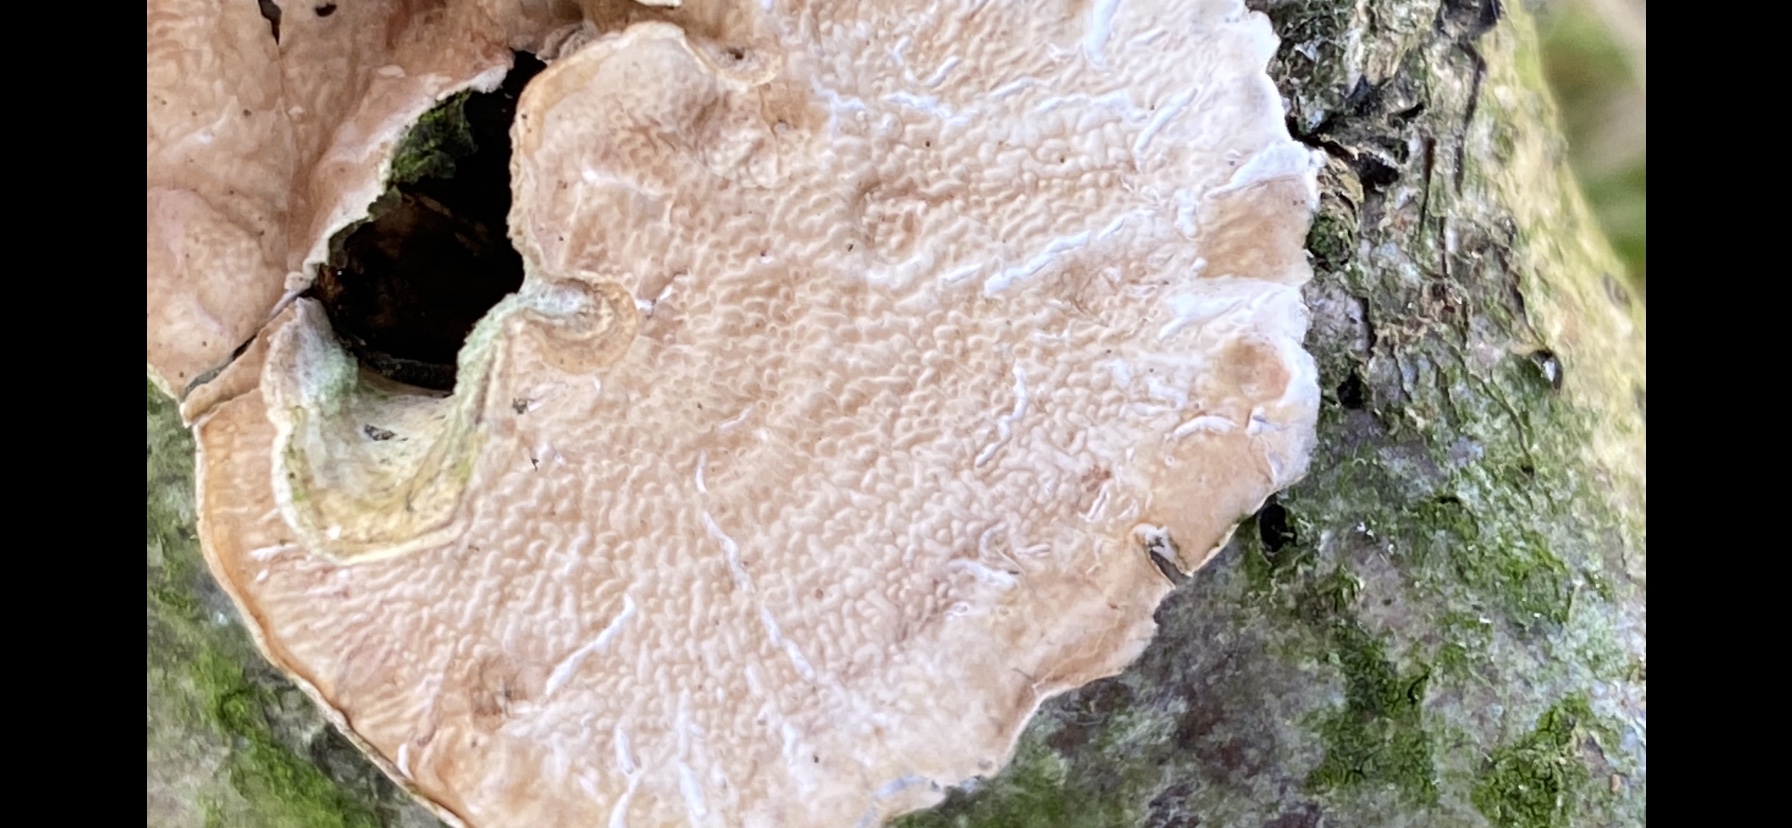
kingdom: Fungi
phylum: Basidiomycota
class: Agaricomycetes
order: Polyporales
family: Irpicaceae
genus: Byssomerulius
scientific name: Byssomerulius corium
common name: læder-åresvamp
